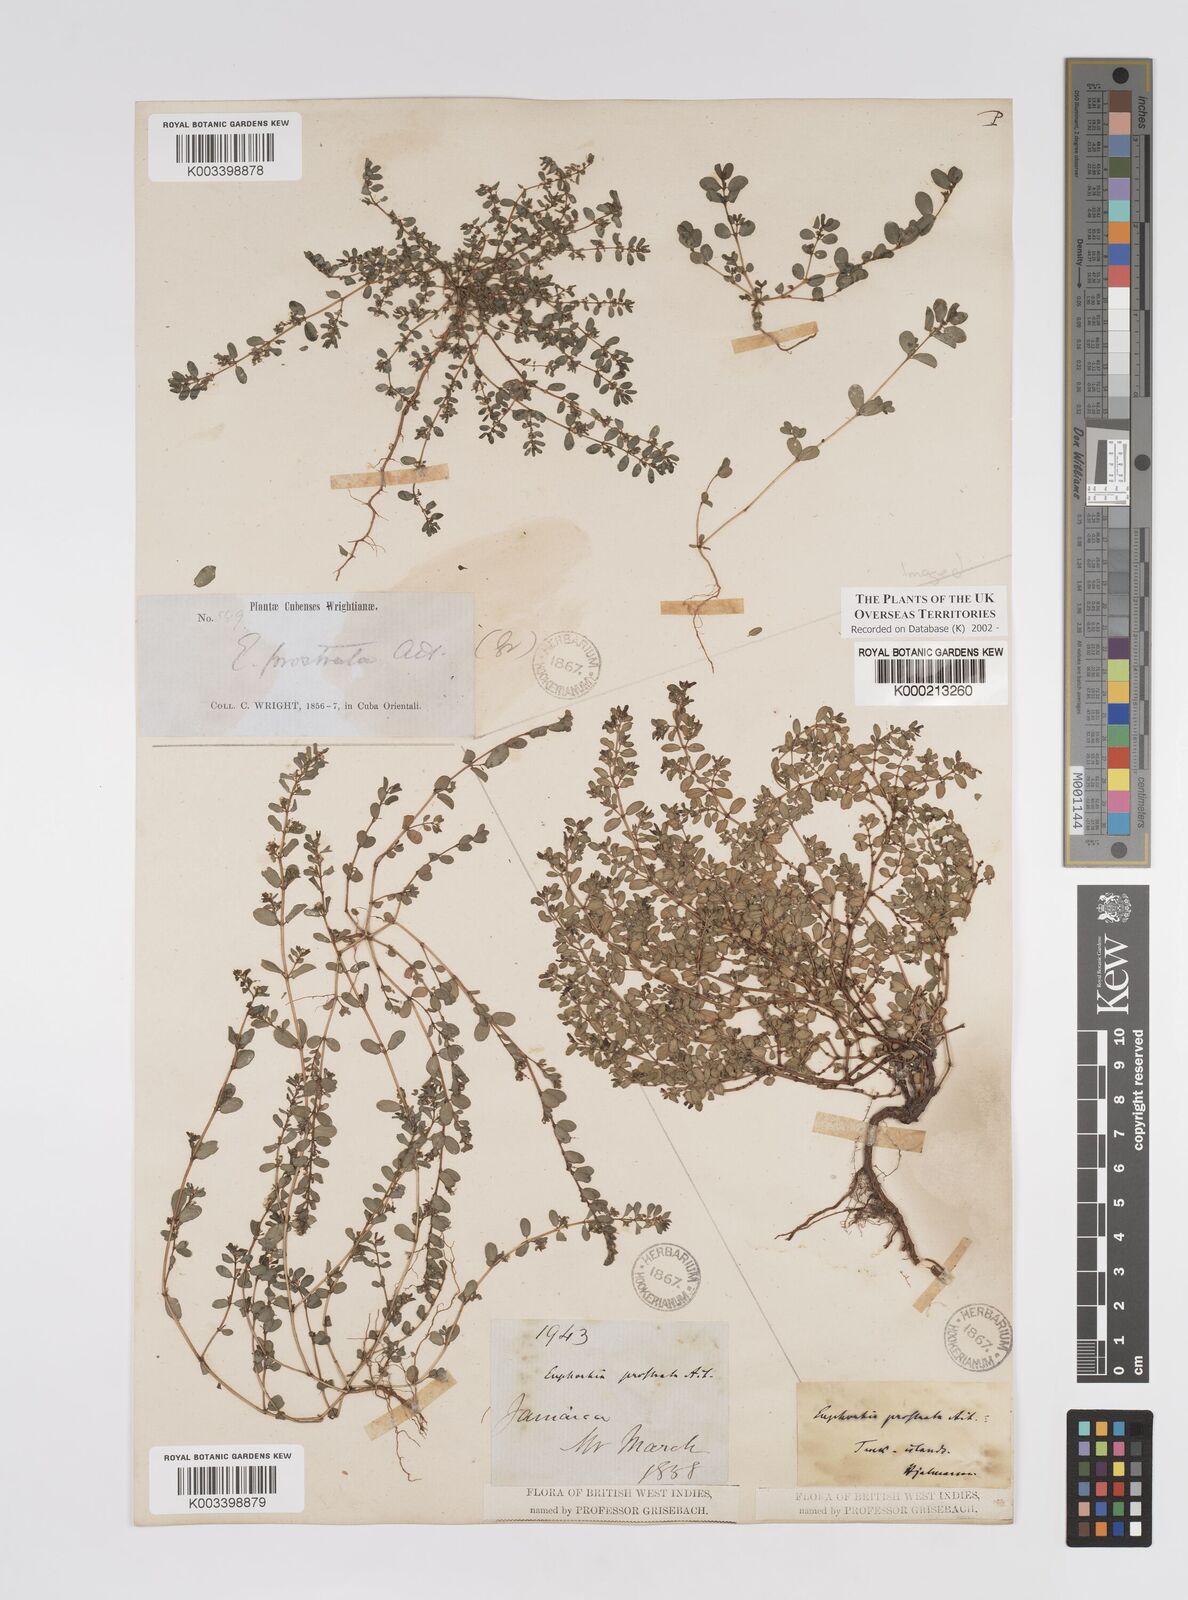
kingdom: Plantae
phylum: Tracheophyta
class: Magnoliopsida
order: Malpighiales
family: Euphorbiaceae
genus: Euphorbia
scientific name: Euphorbia prostrata
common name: Prostrate sandmat
